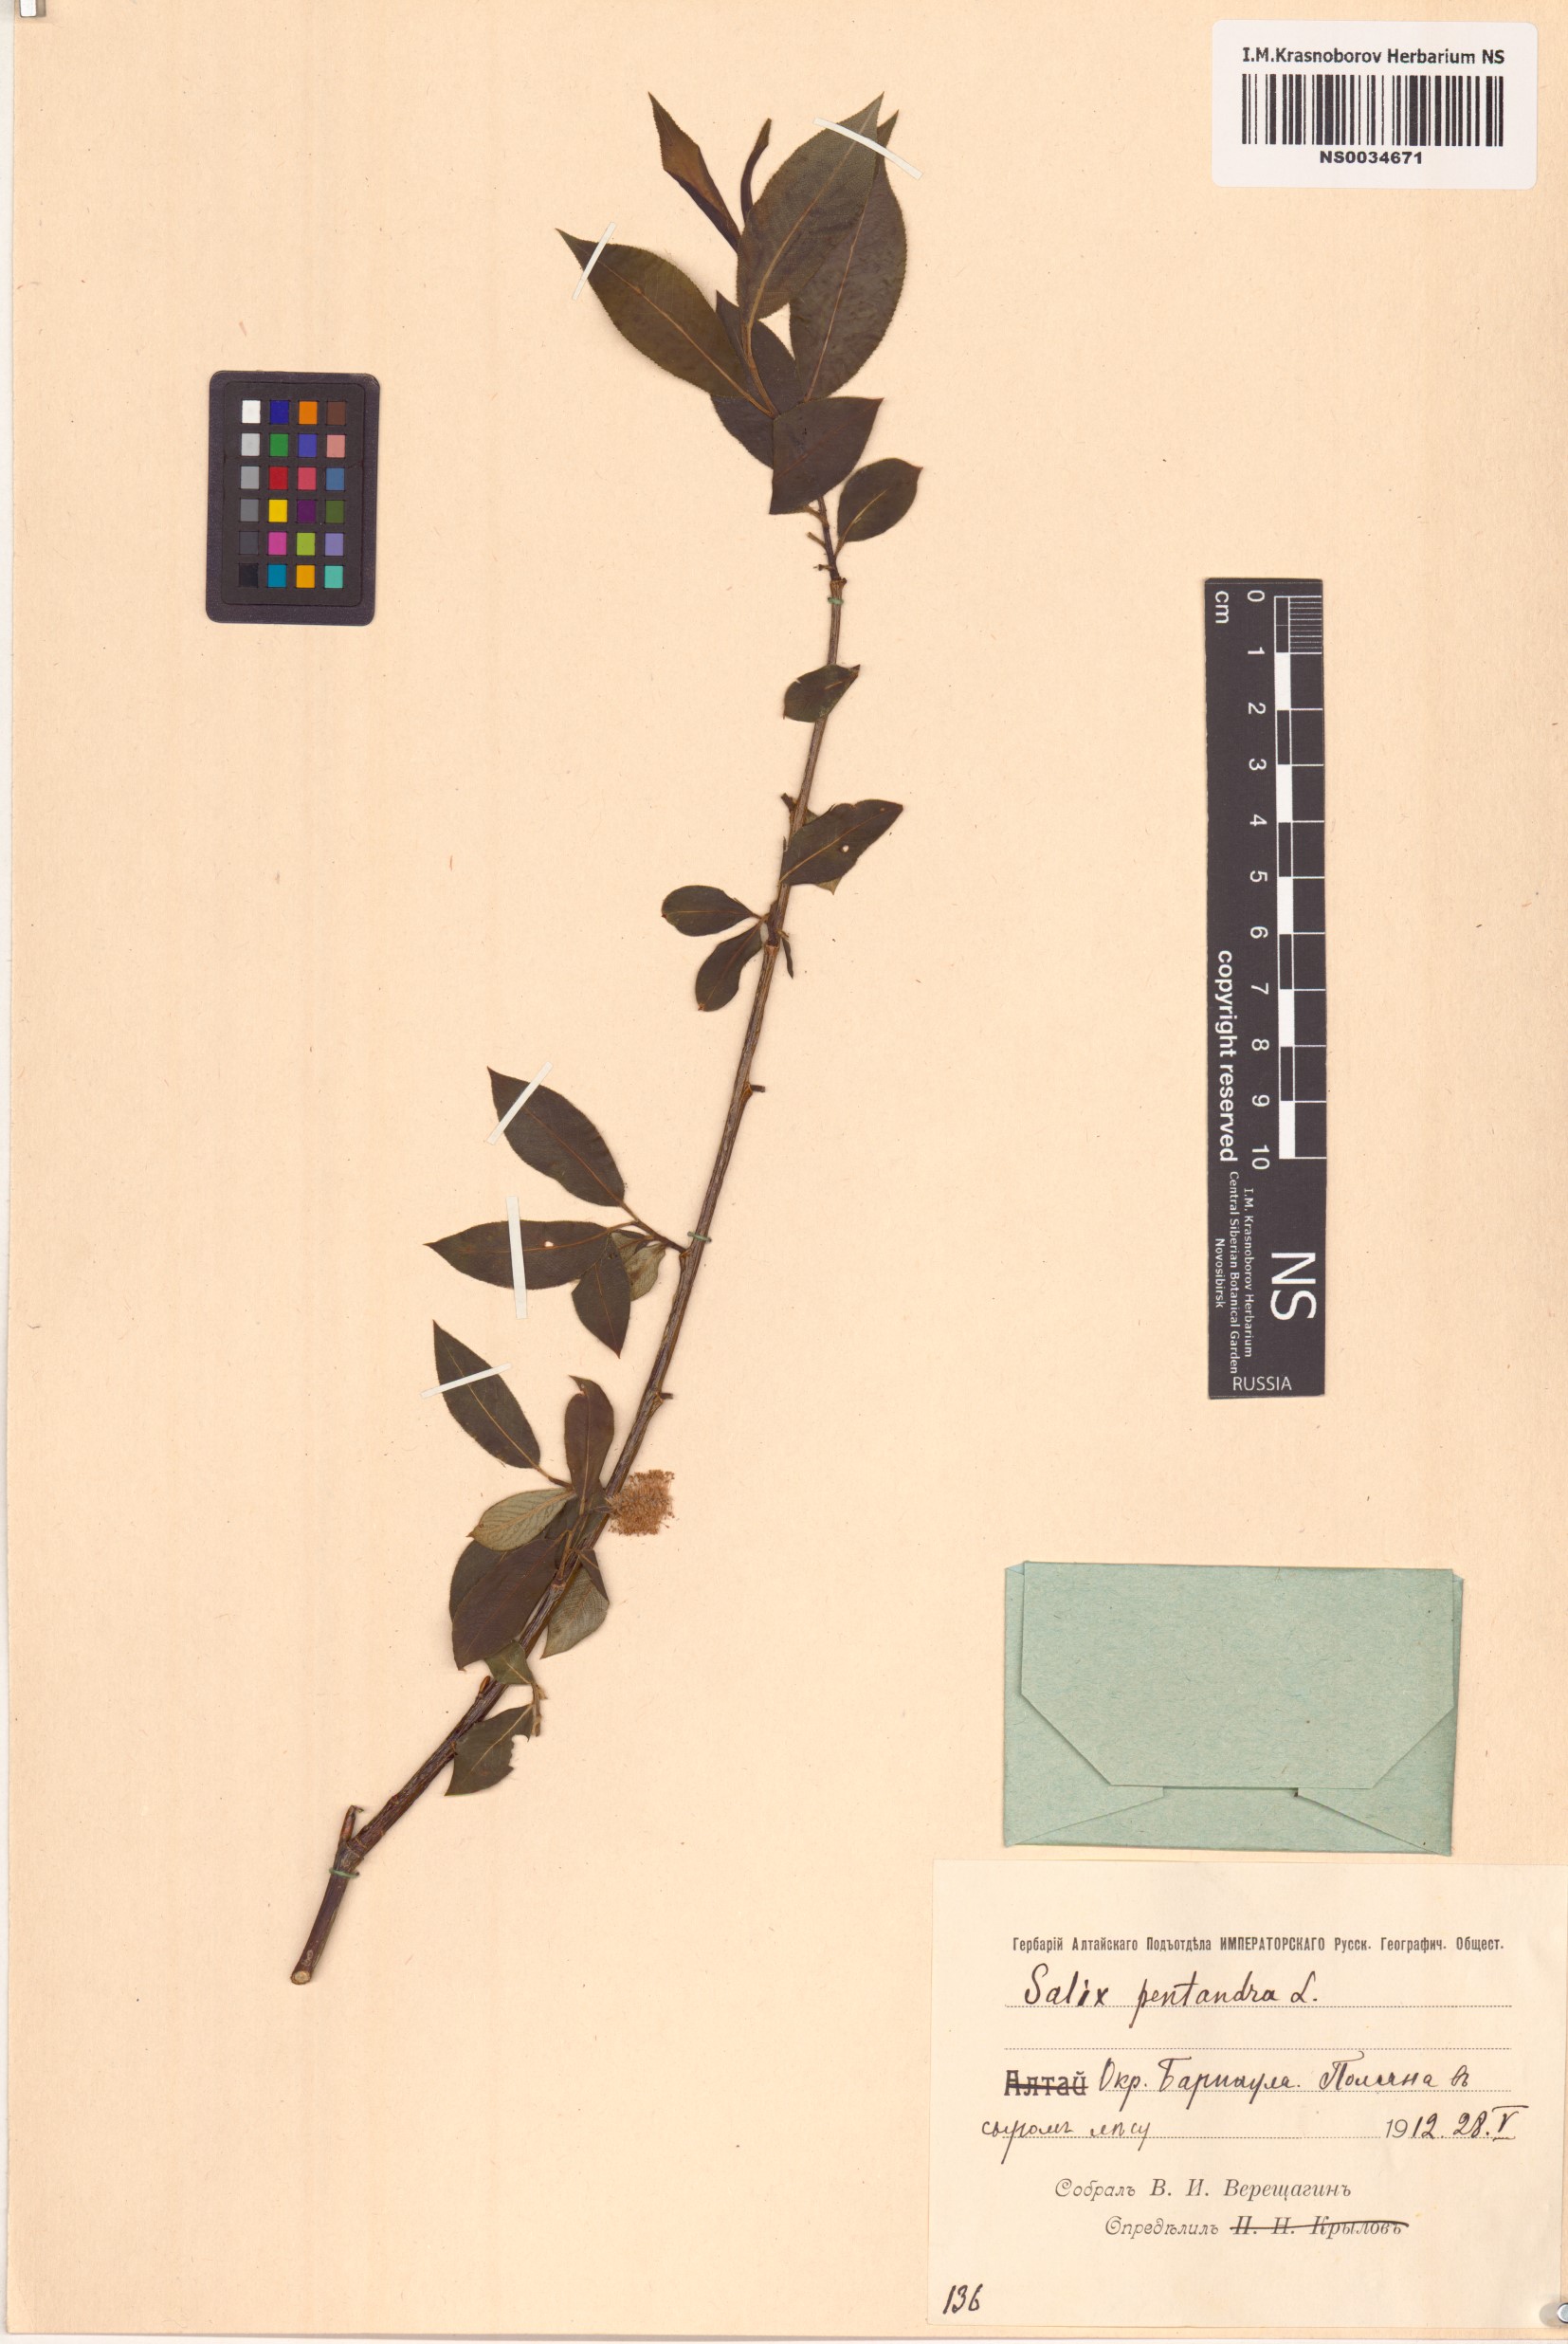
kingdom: Plantae
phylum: Tracheophyta
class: Magnoliopsida
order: Malpighiales
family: Salicaceae
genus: Salix
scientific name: Salix pentandra
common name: Bay willow
